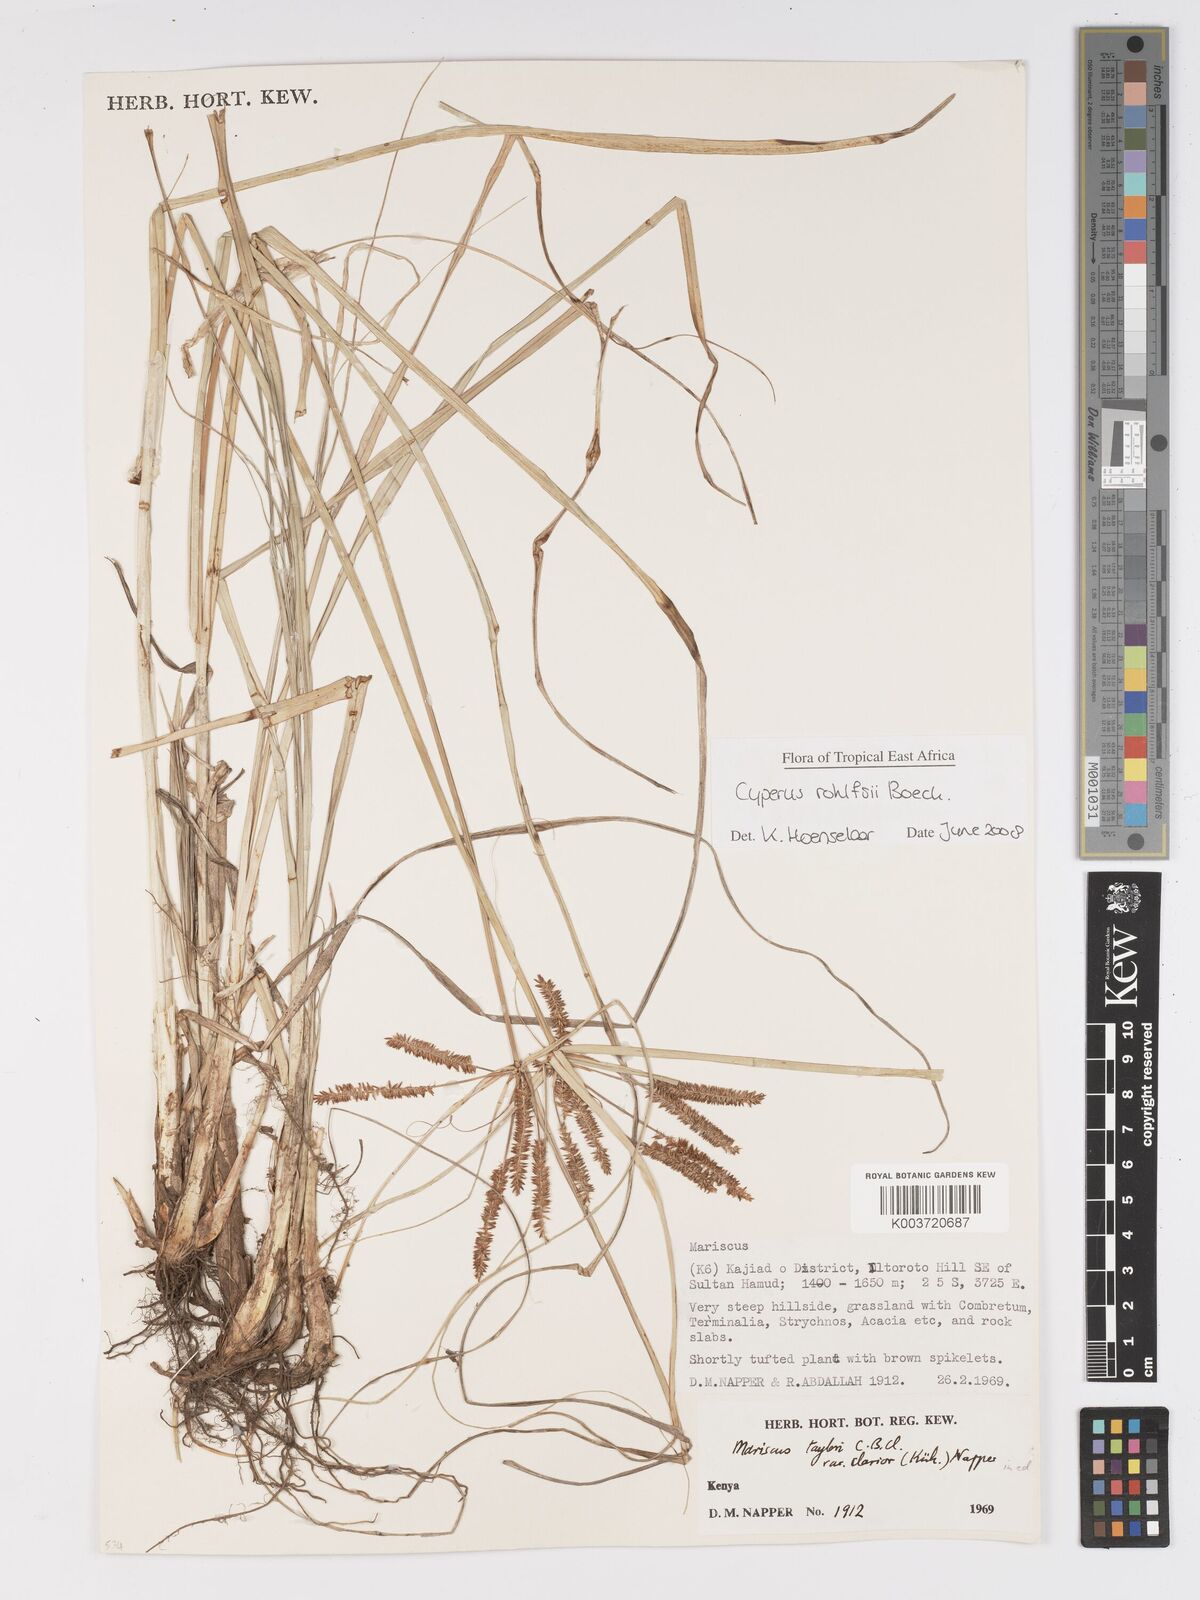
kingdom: Plantae
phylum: Tracheophyta
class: Liliopsida
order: Poales
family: Cyperaceae
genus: Cyperus
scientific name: Cyperus rohlfsii
